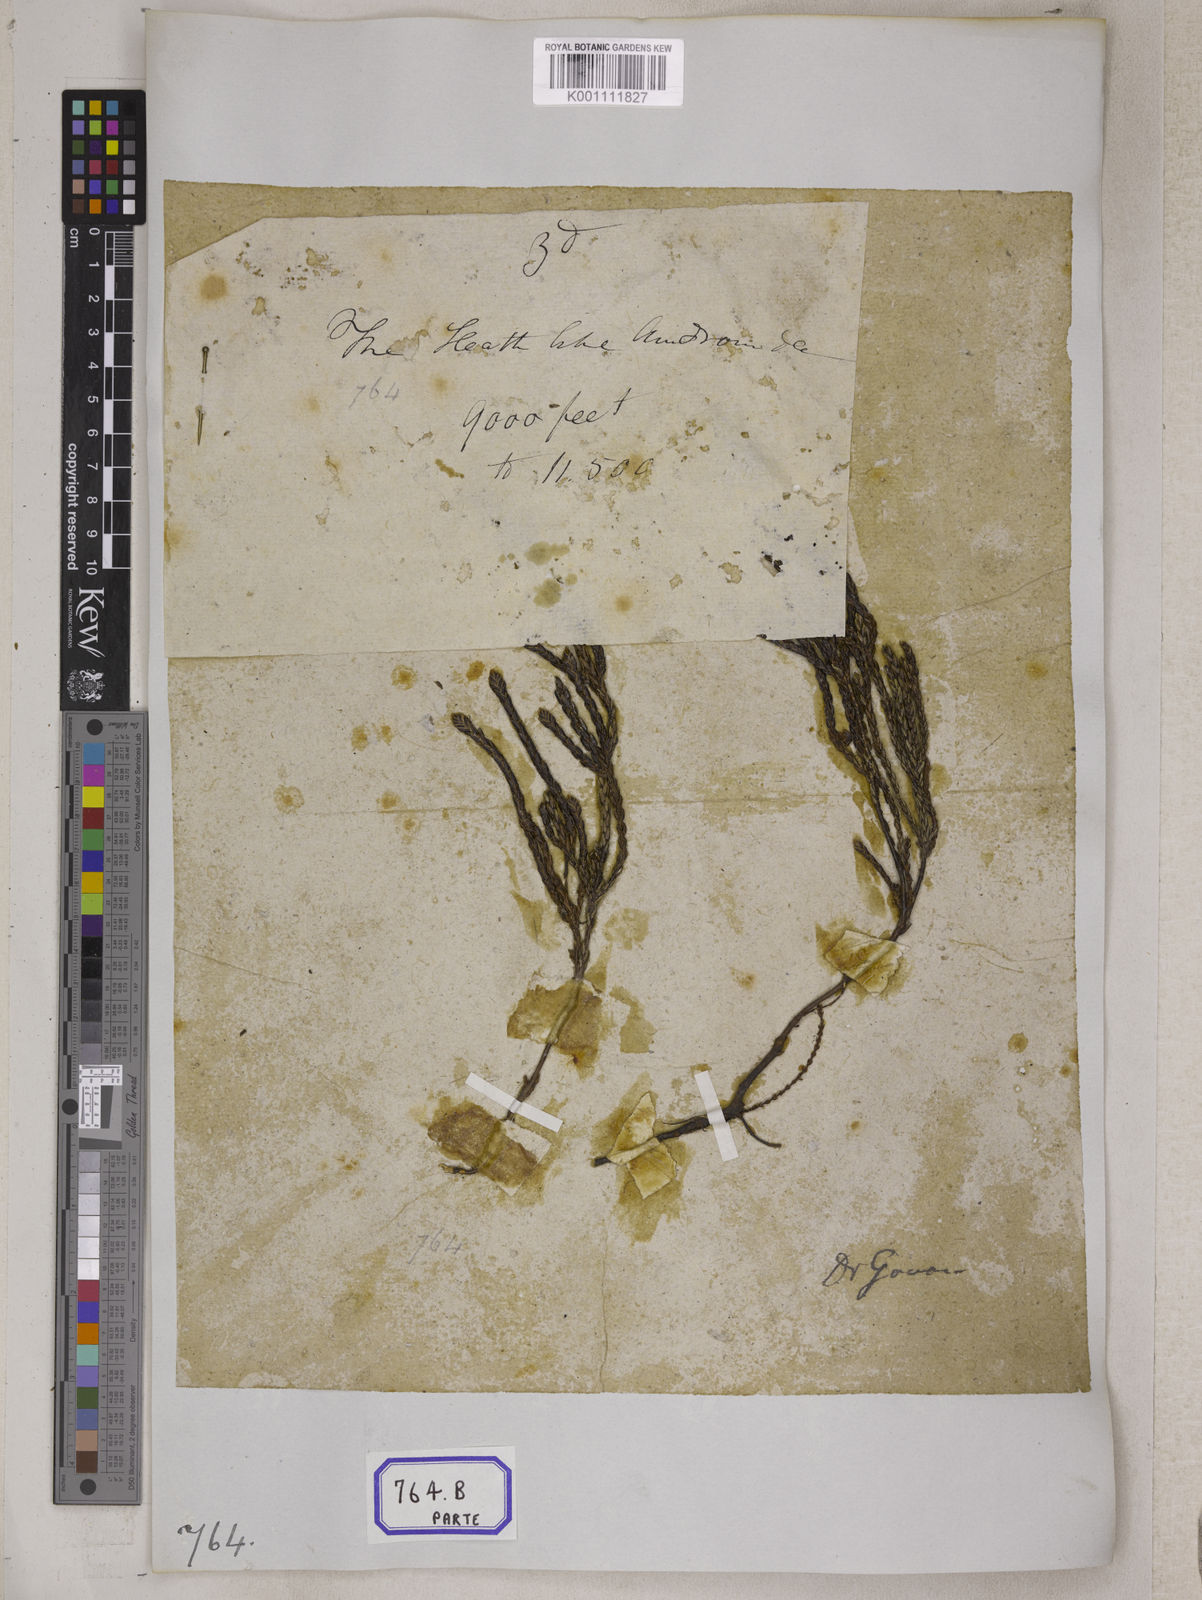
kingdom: Plantae
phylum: Tracheophyta
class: Magnoliopsida
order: Ericales
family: Ericaceae
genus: Cassiope
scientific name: Cassiope fastigiata
